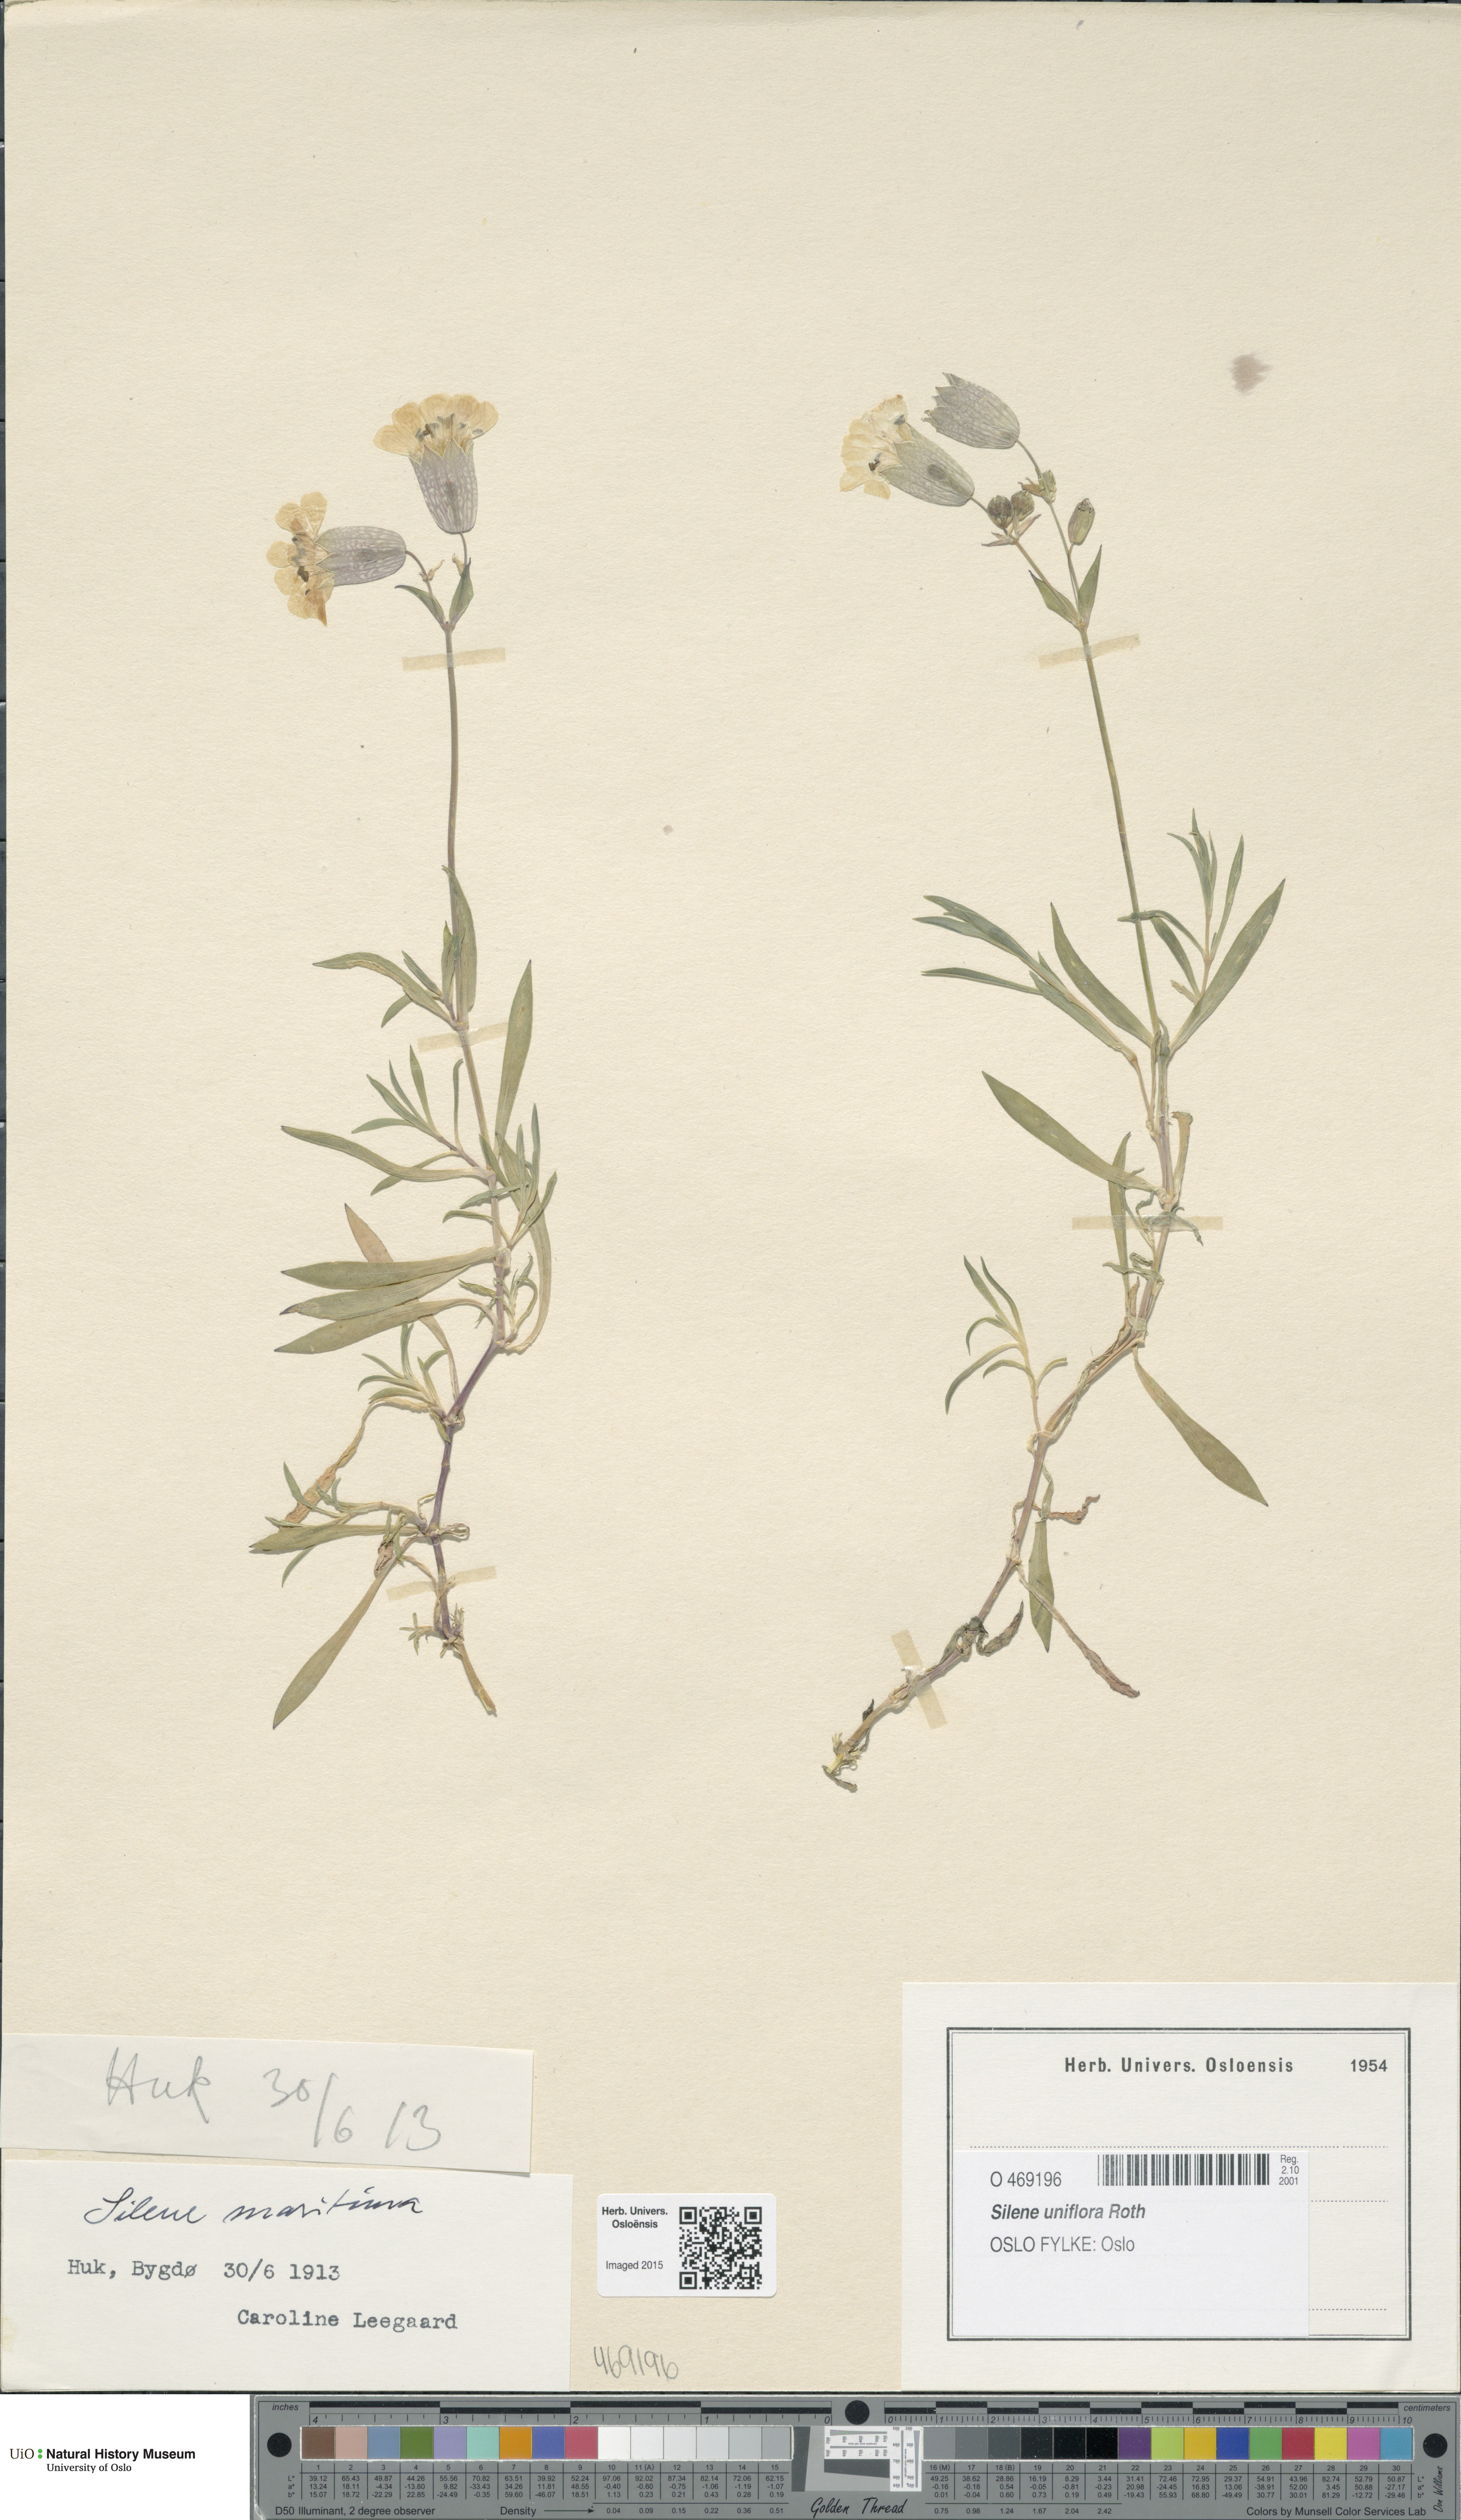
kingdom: Plantae
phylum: Tracheophyta
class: Magnoliopsida
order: Caryophyllales
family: Caryophyllaceae
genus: Silene
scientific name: Silene uniflora
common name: Sea campion
